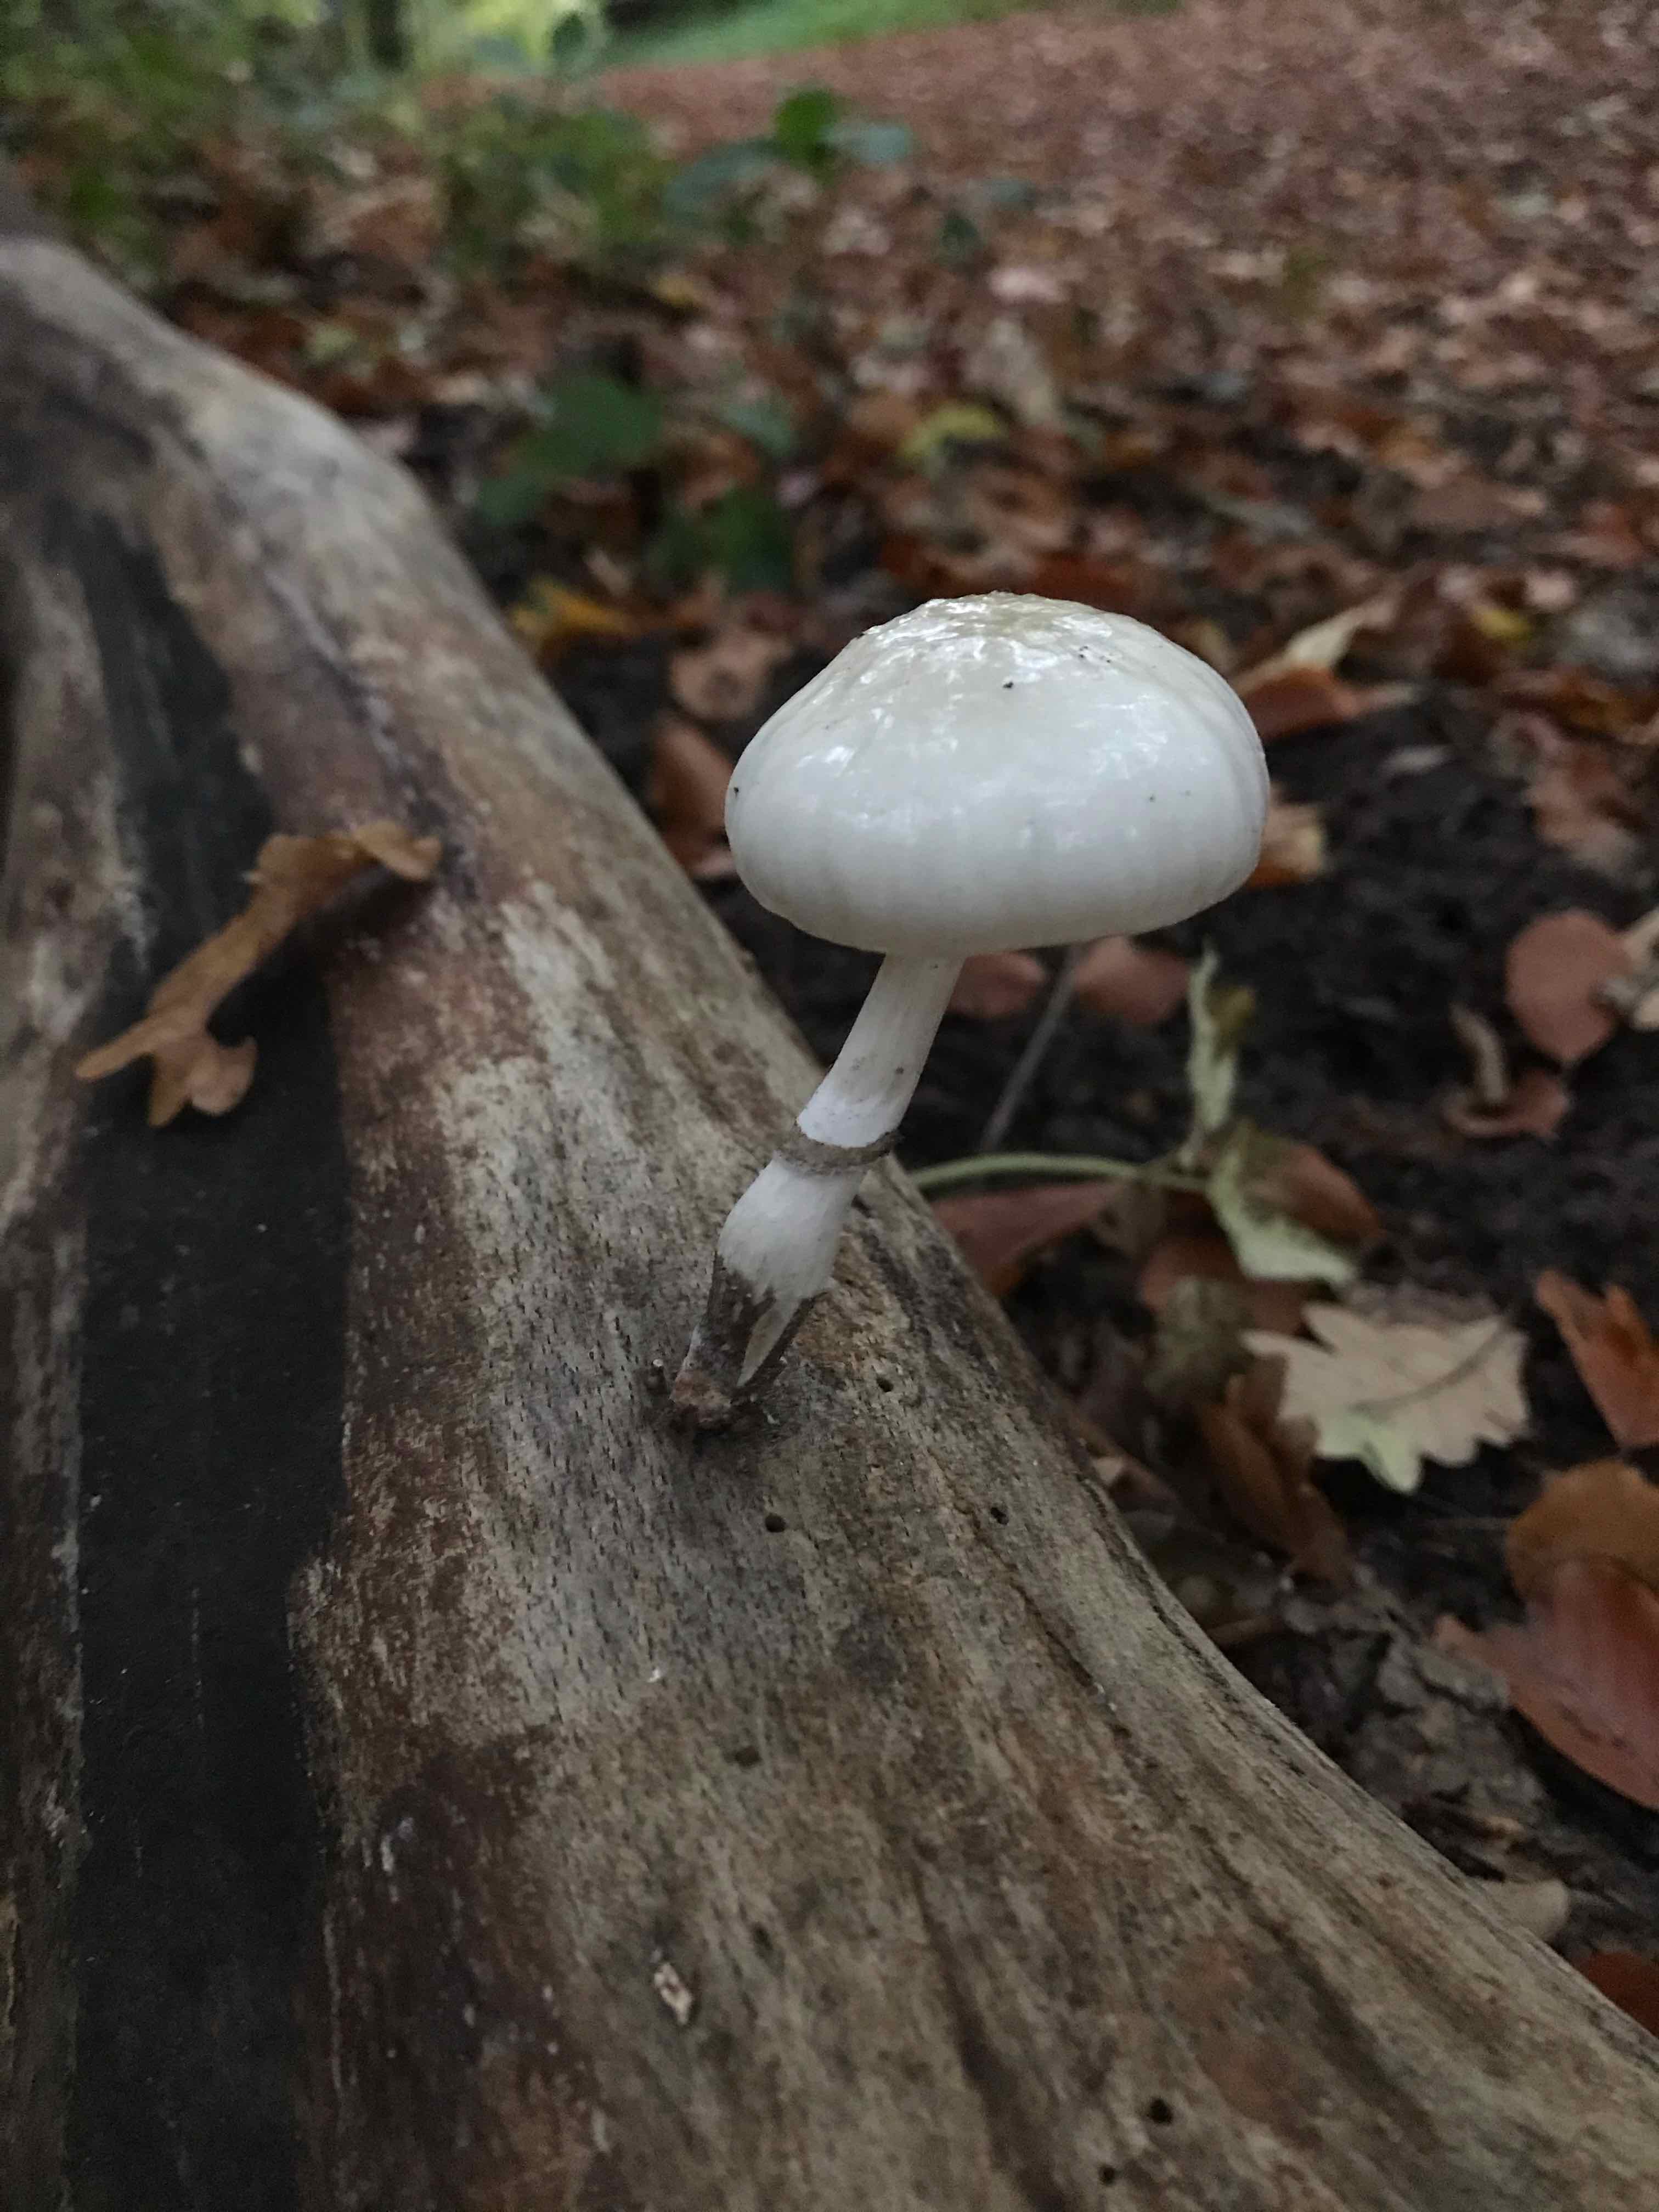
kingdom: Fungi
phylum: Basidiomycota
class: Agaricomycetes
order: Agaricales
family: Physalacriaceae
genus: Mucidula
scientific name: Mucidula mucida
